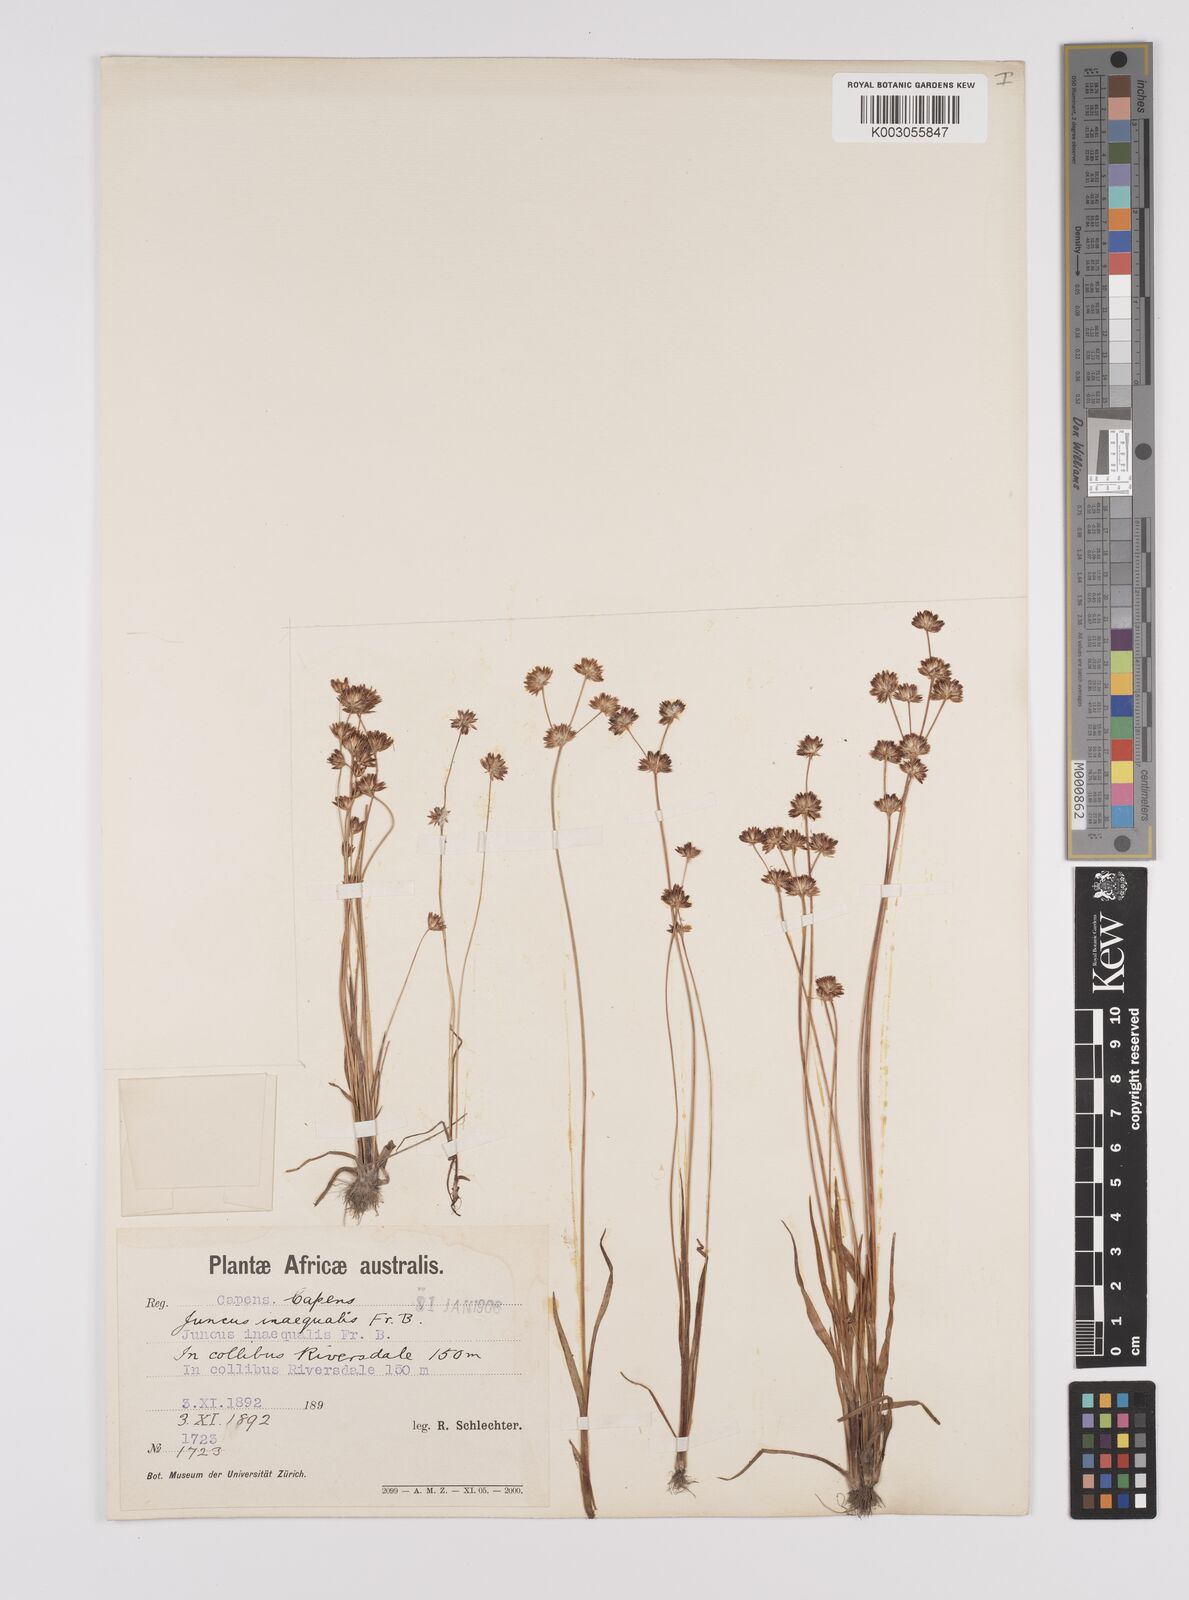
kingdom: Plantae
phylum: Tracheophyta
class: Liliopsida
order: Poales
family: Juncaceae
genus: Juncus
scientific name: Juncus cephalotes
